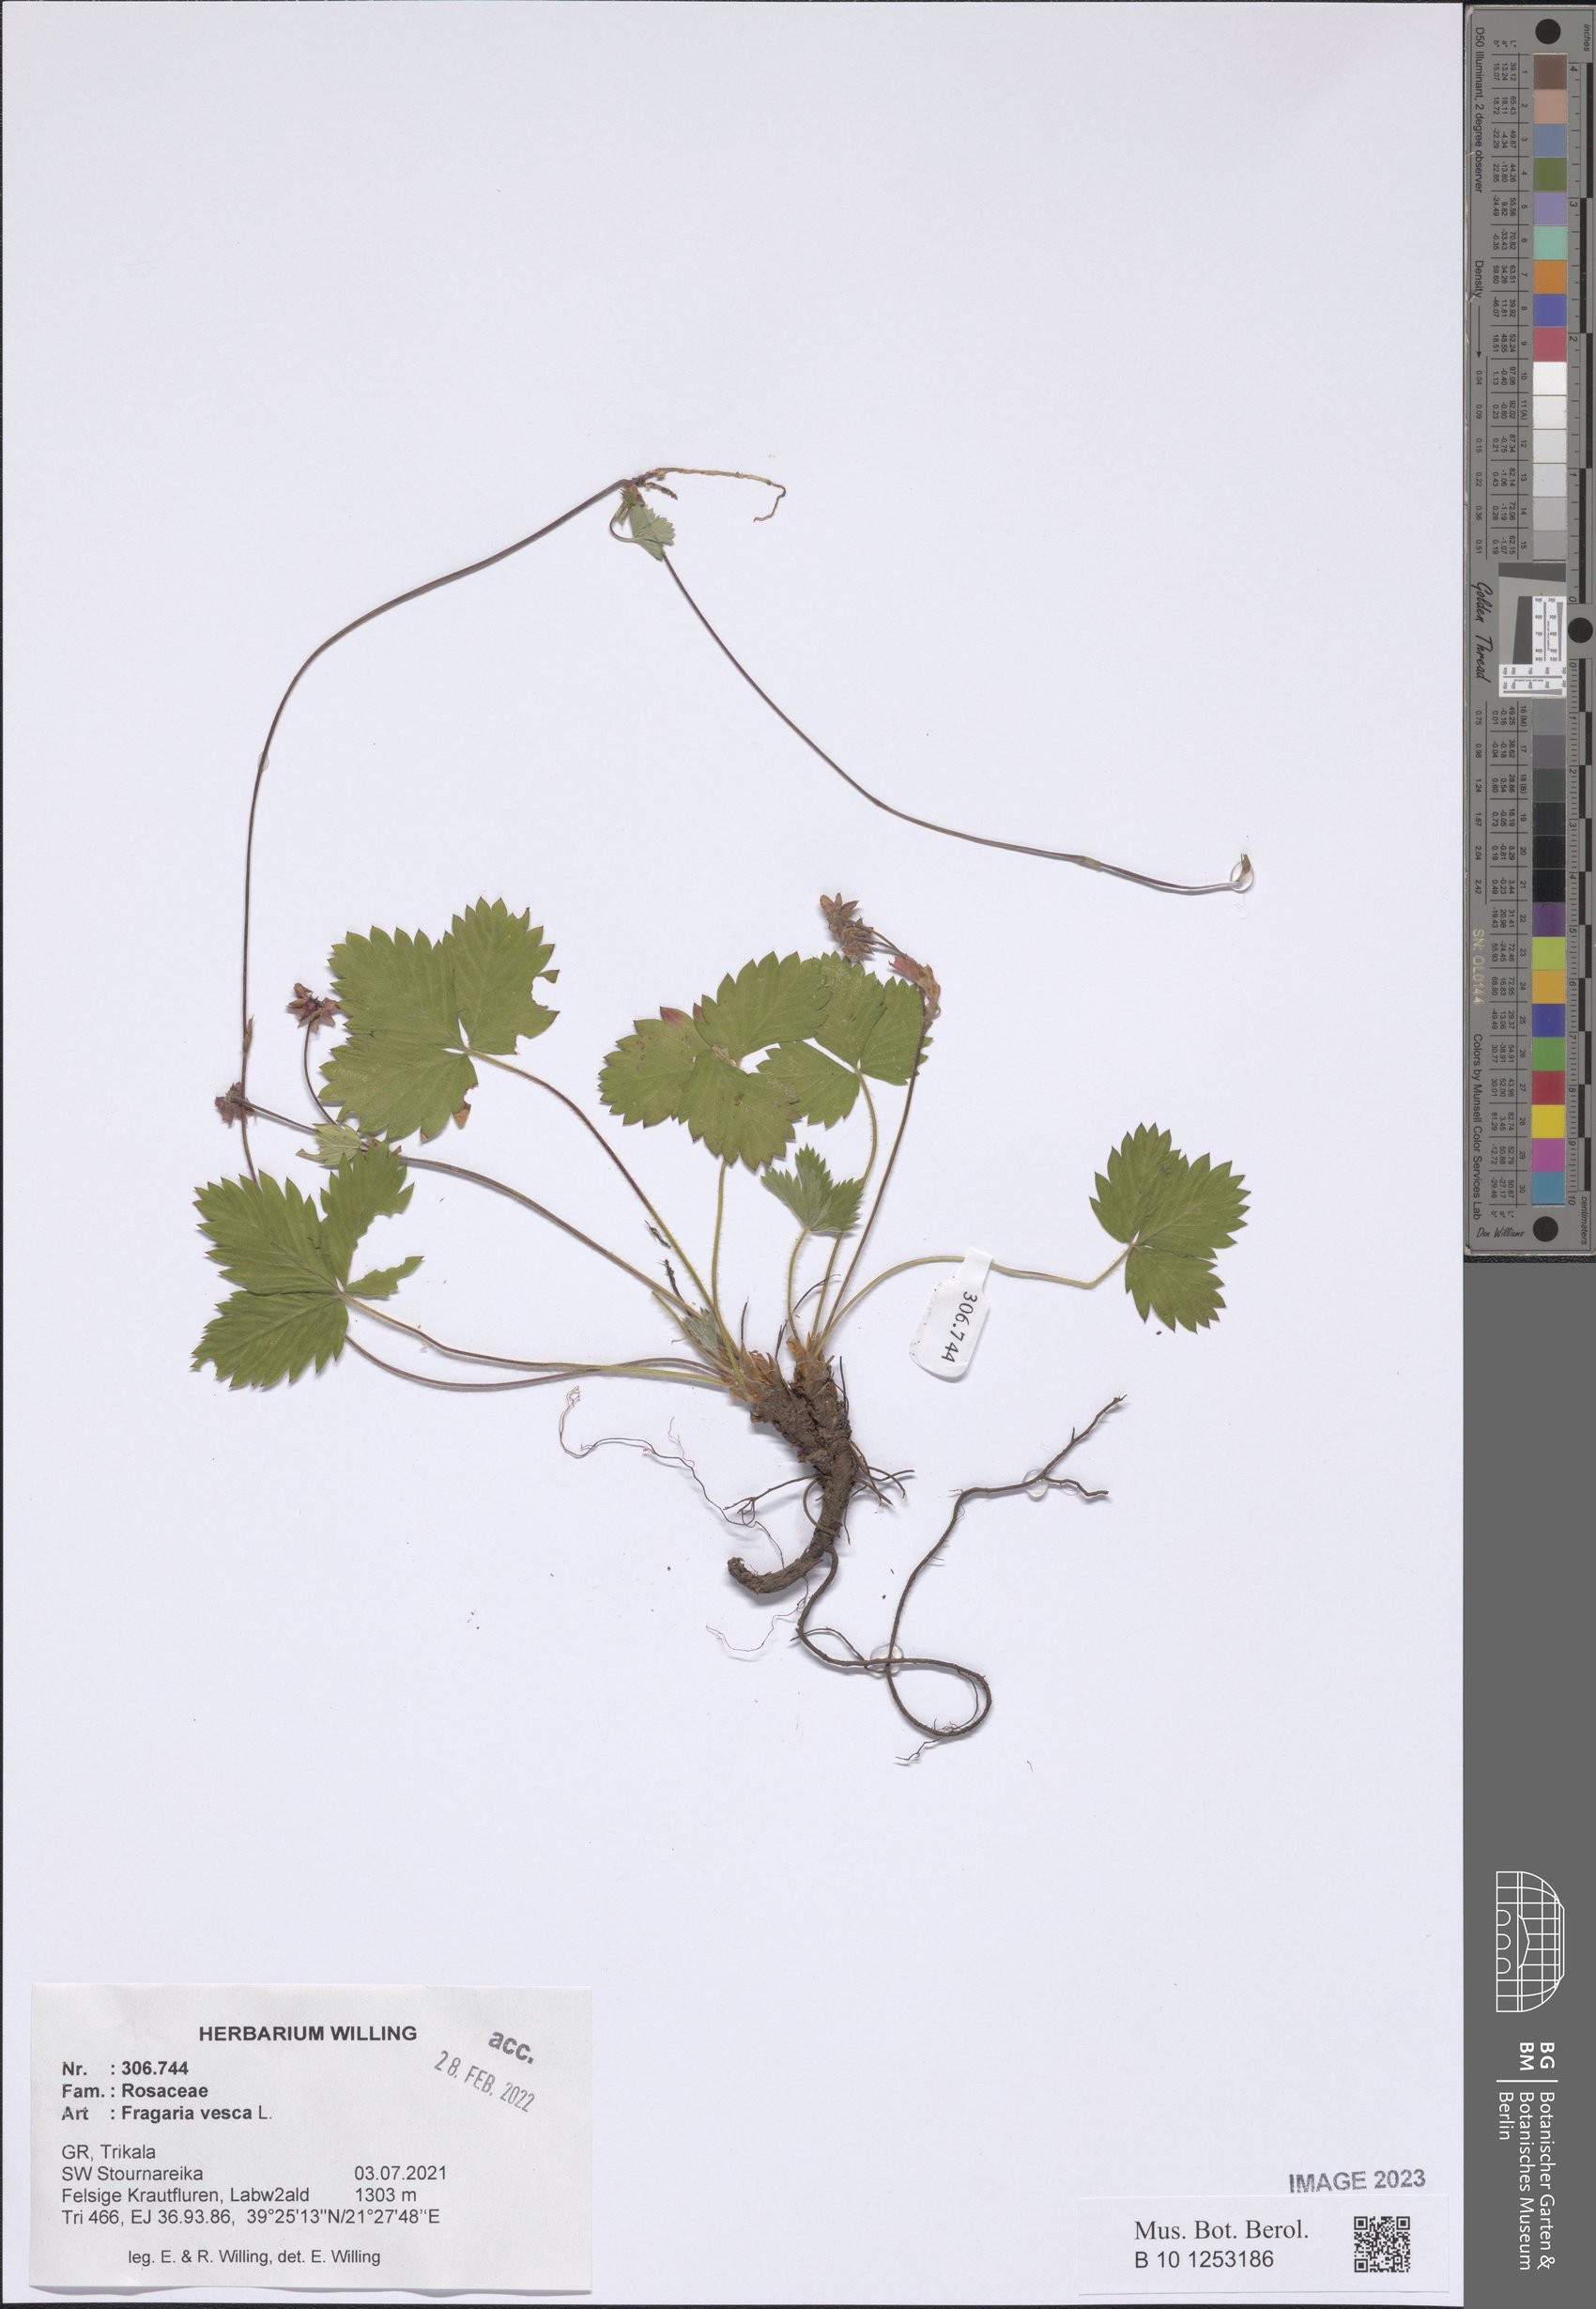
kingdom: Plantae
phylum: Tracheophyta
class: Magnoliopsida
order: Rosales
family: Rosaceae
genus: Fragaria
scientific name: Fragaria vesca
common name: Wild strawberry
